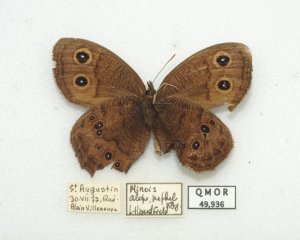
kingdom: Animalia
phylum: Arthropoda
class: Insecta
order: Lepidoptera
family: Nymphalidae
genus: Cercyonis
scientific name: Cercyonis pegala
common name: Common Wood-Nymph
